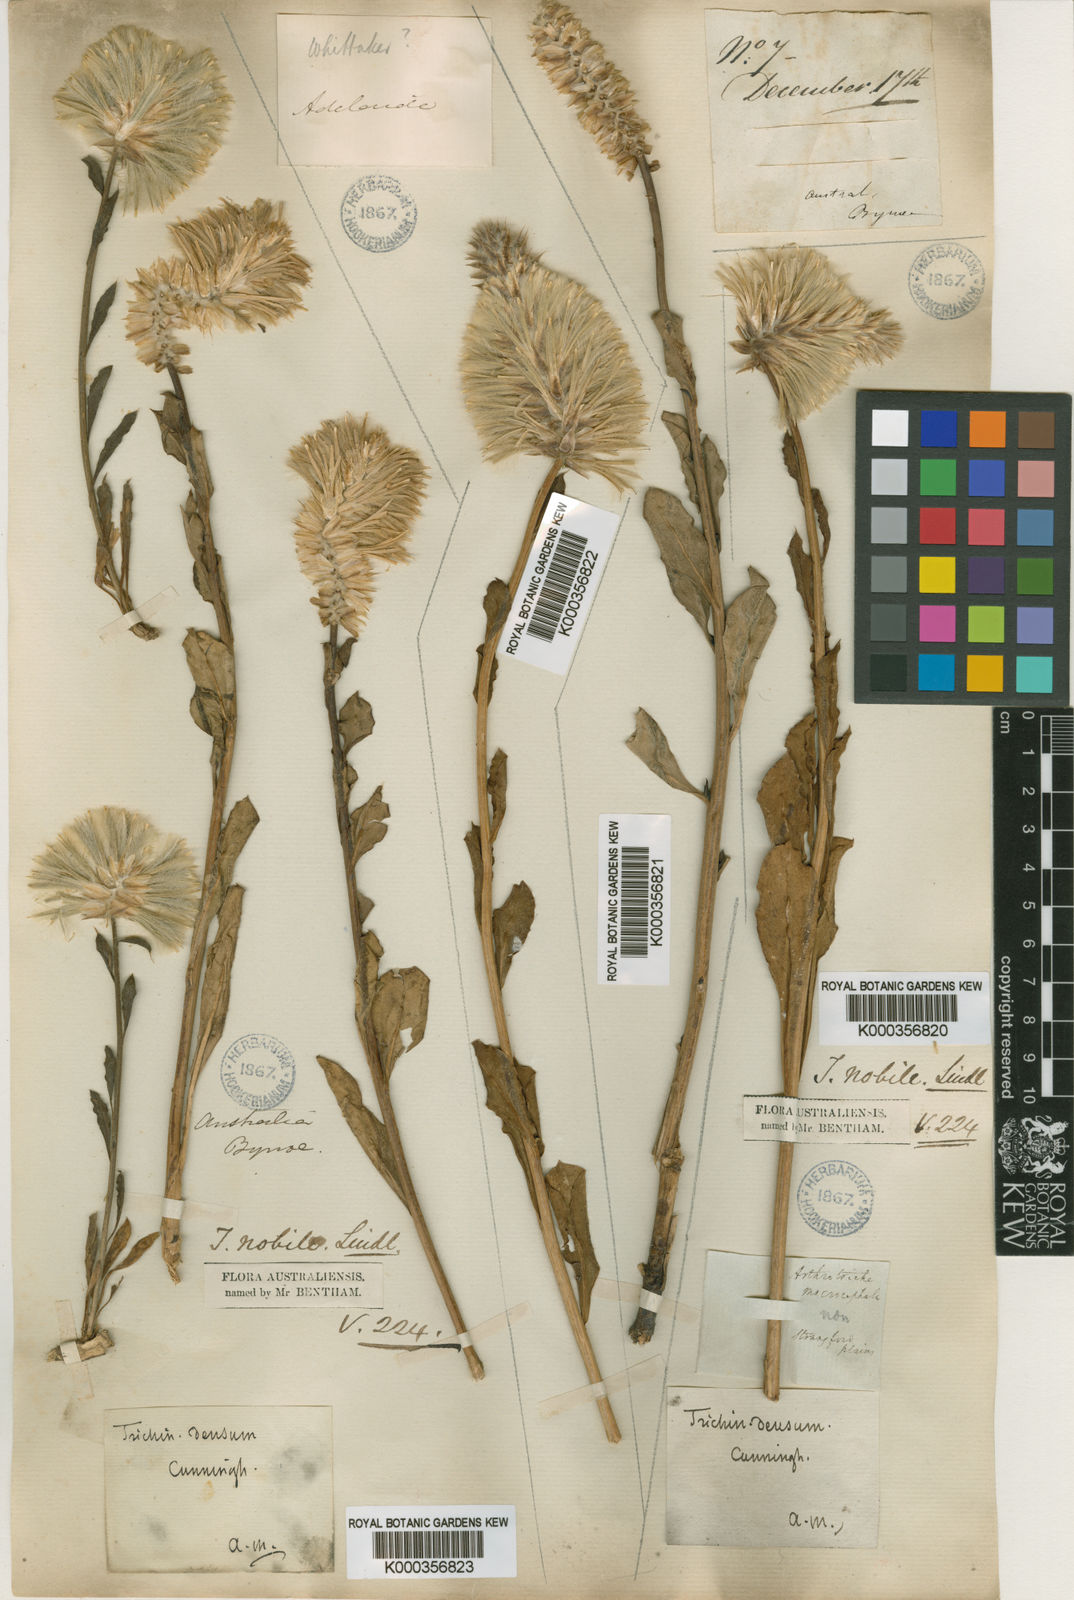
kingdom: Plantae
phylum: Tracheophyta
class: Magnoliopsida
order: Caryophyllales
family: Amaranthaceae
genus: Ptilotus
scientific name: Ptilotus nobilis
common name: Regal-foxtail
